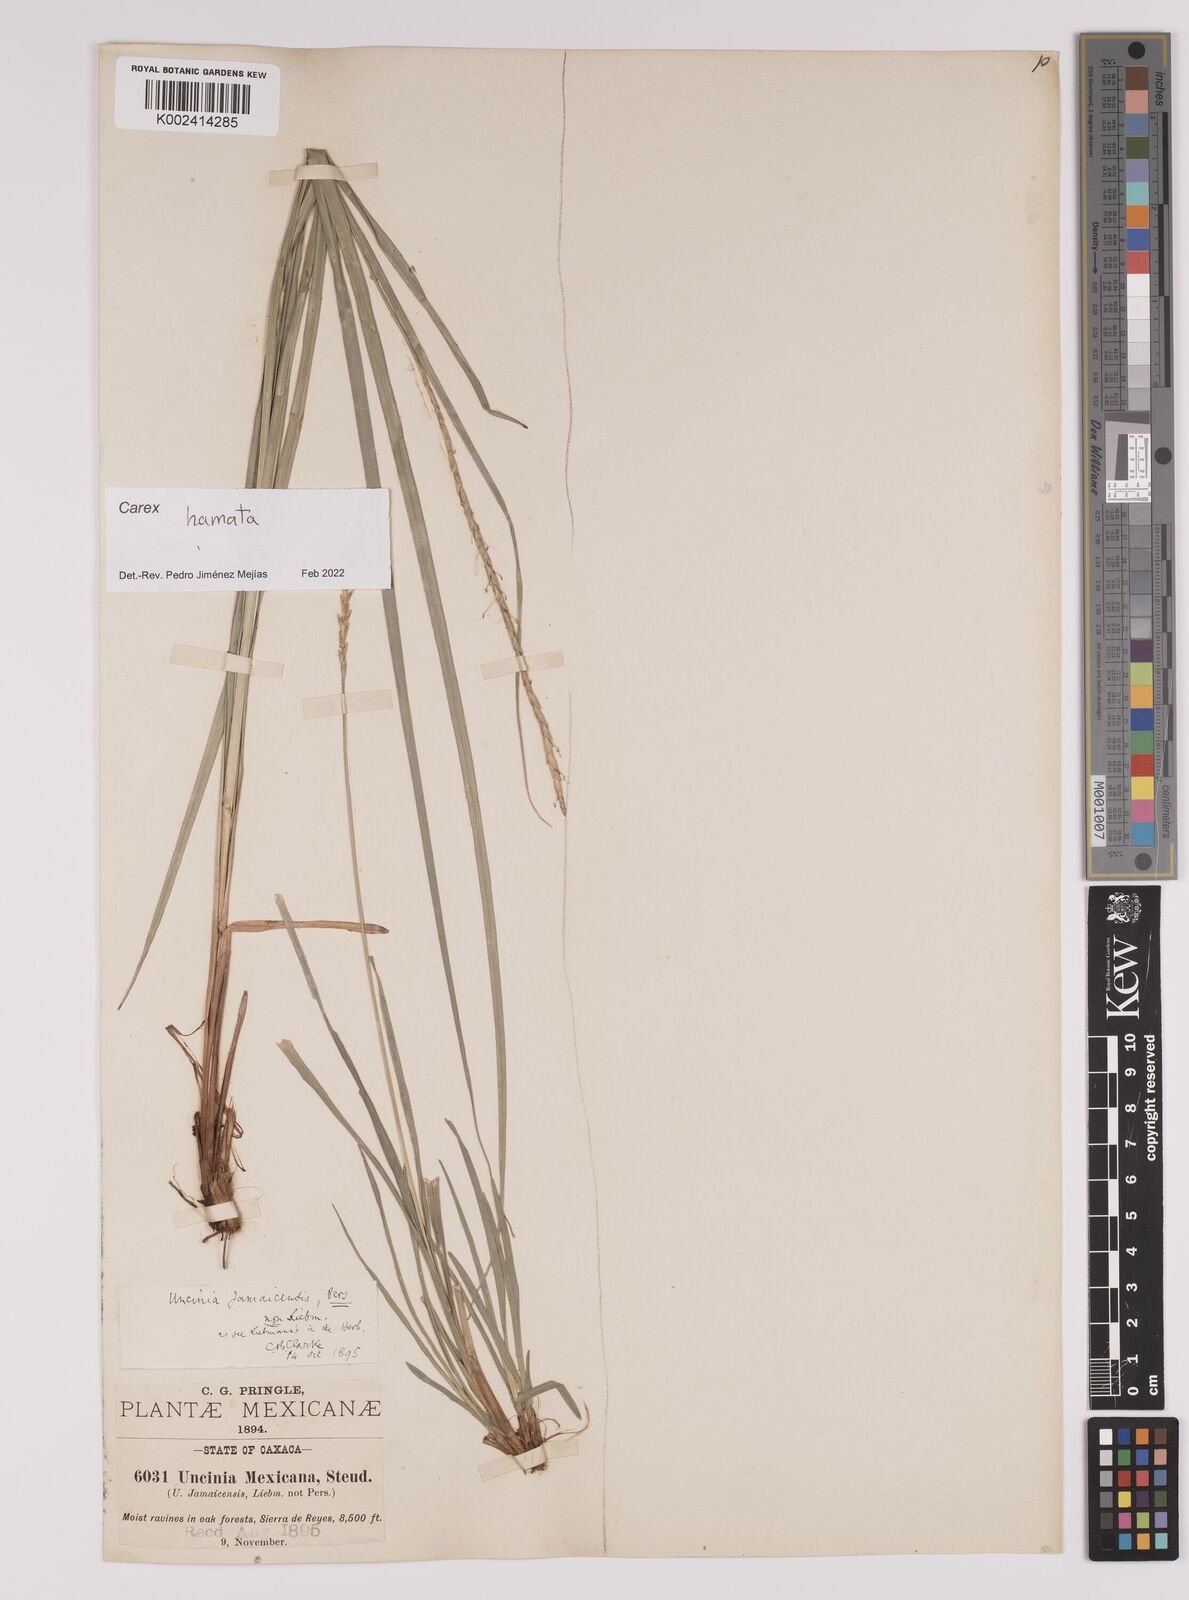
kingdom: Plantae
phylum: Tracheophyta
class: Liliopsida
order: Poales
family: Cyperaceae
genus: Carex
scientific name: Carex hamata
